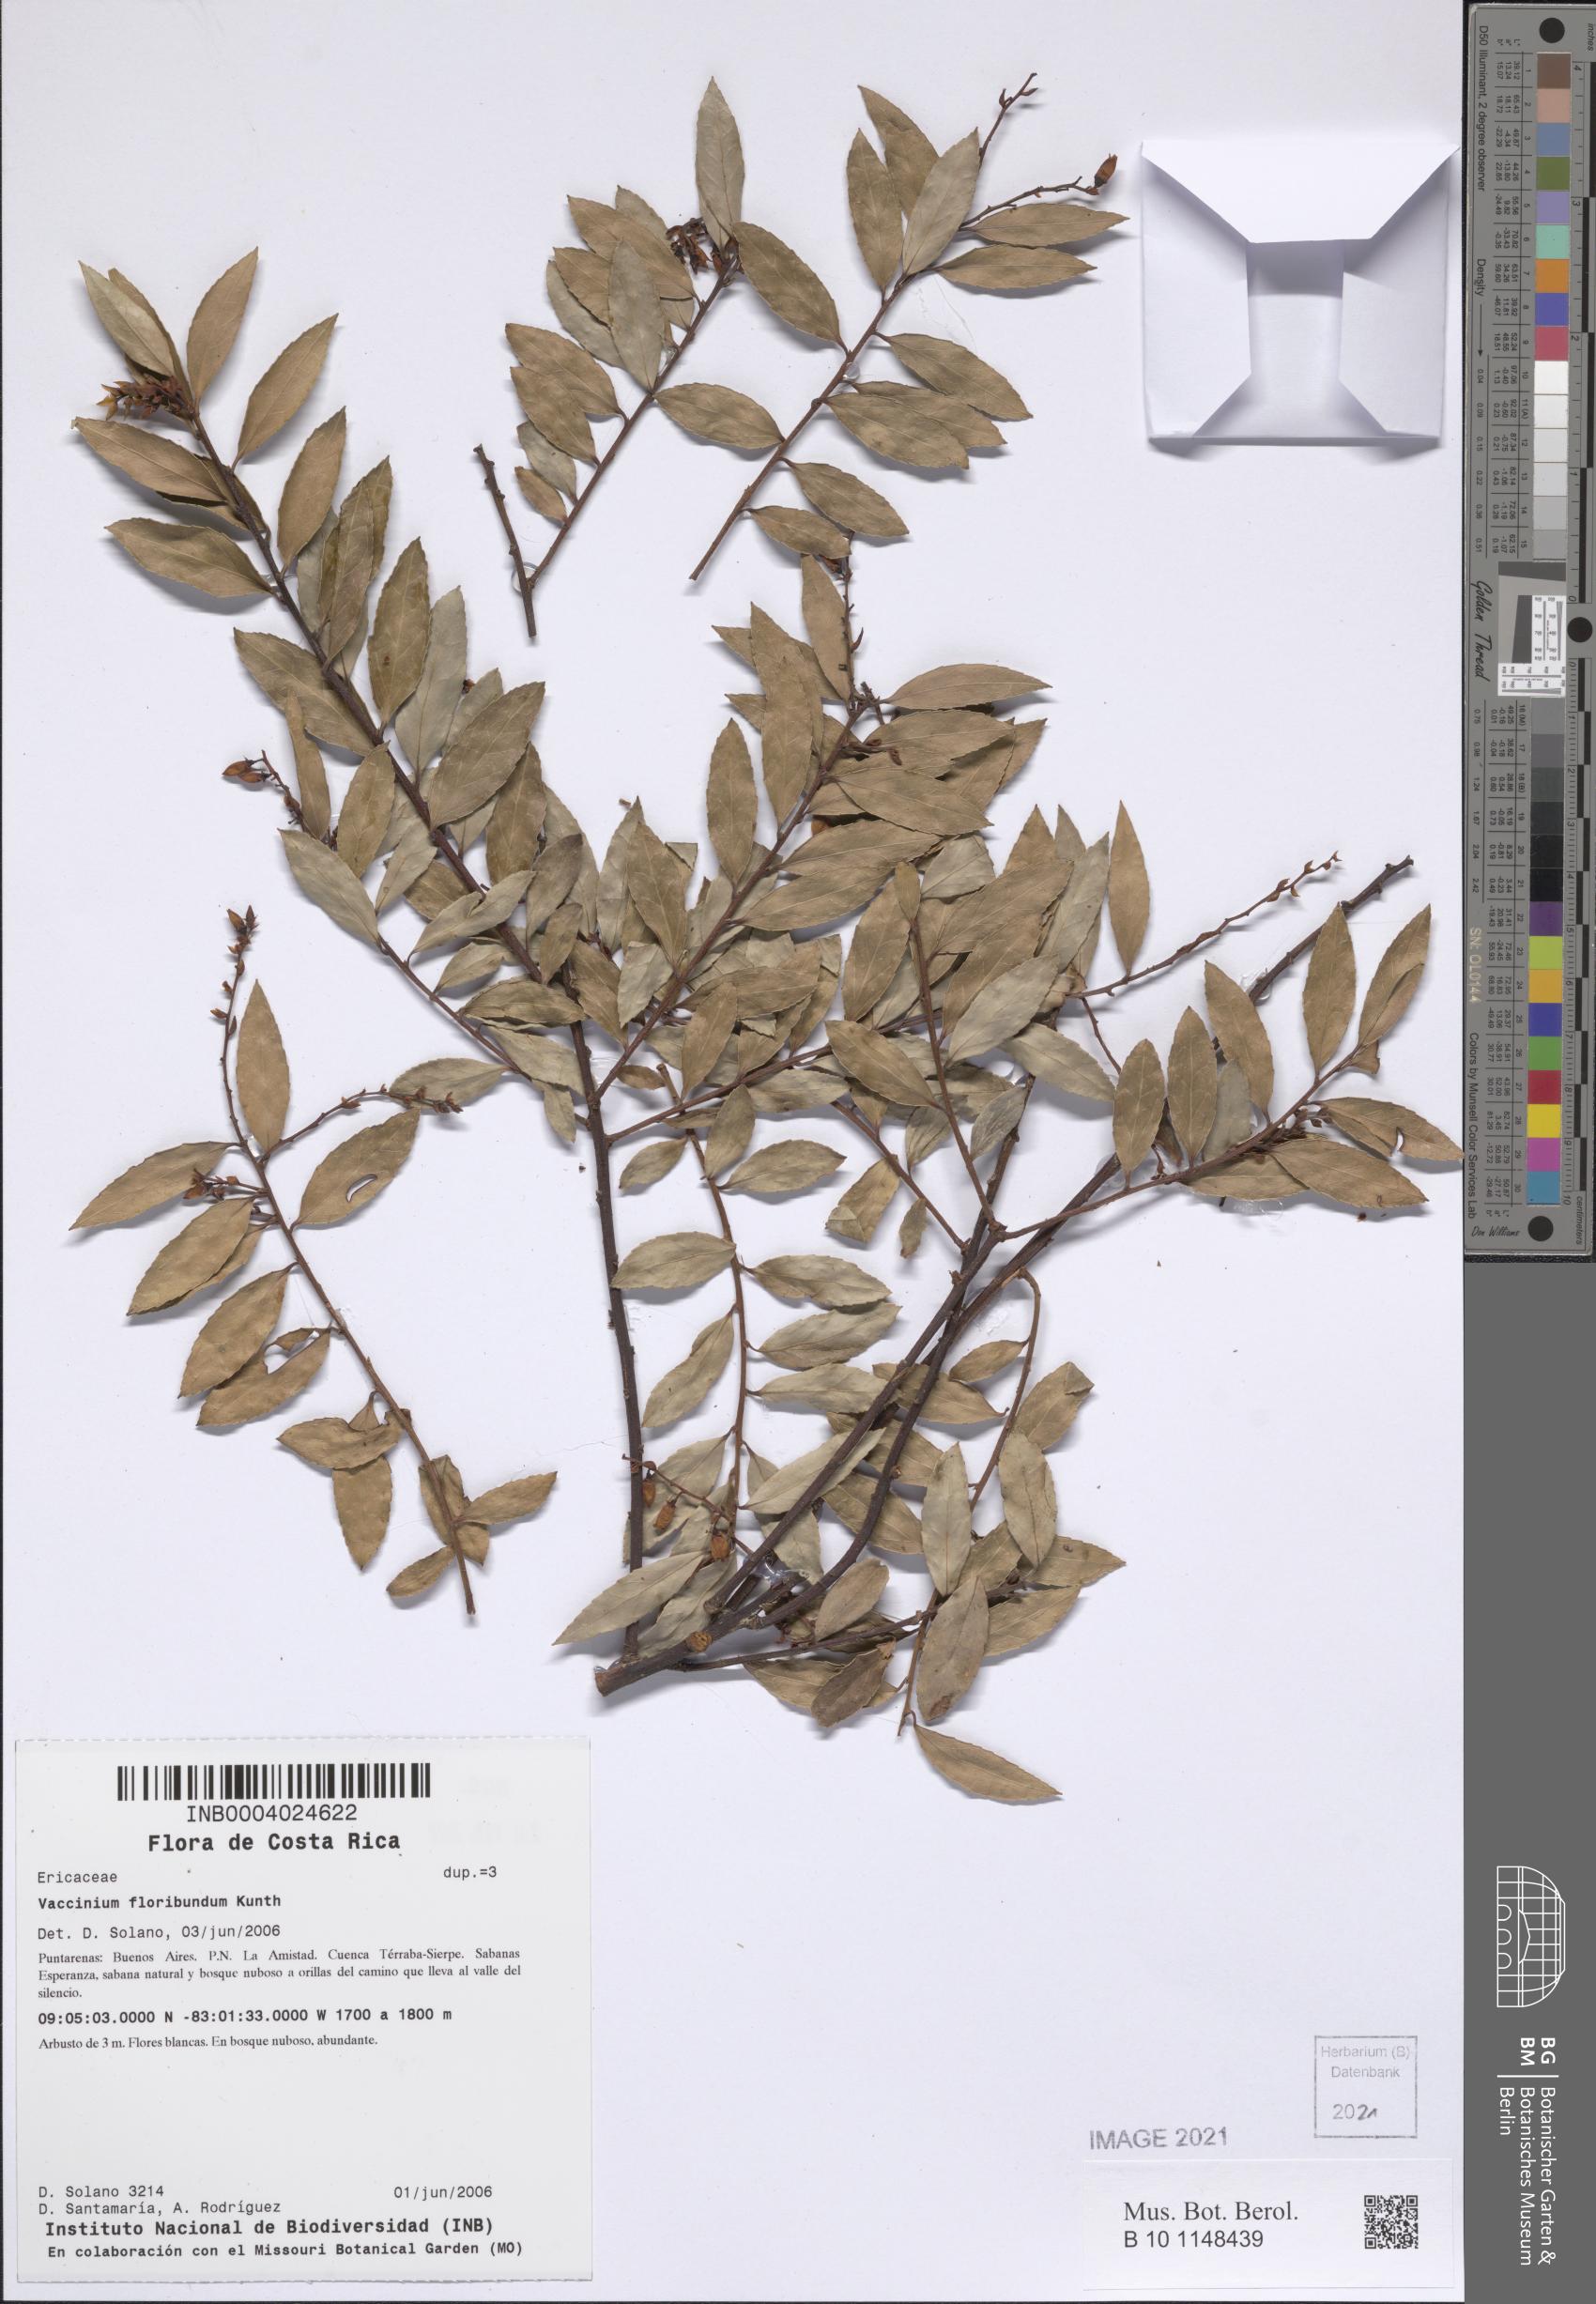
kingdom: Plantae
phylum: Tracheophyta
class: Magnoliopsida
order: Ericales
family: Ericaceae
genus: Vaccinium
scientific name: Vaccinium floribundum
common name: Colombian blueberry
